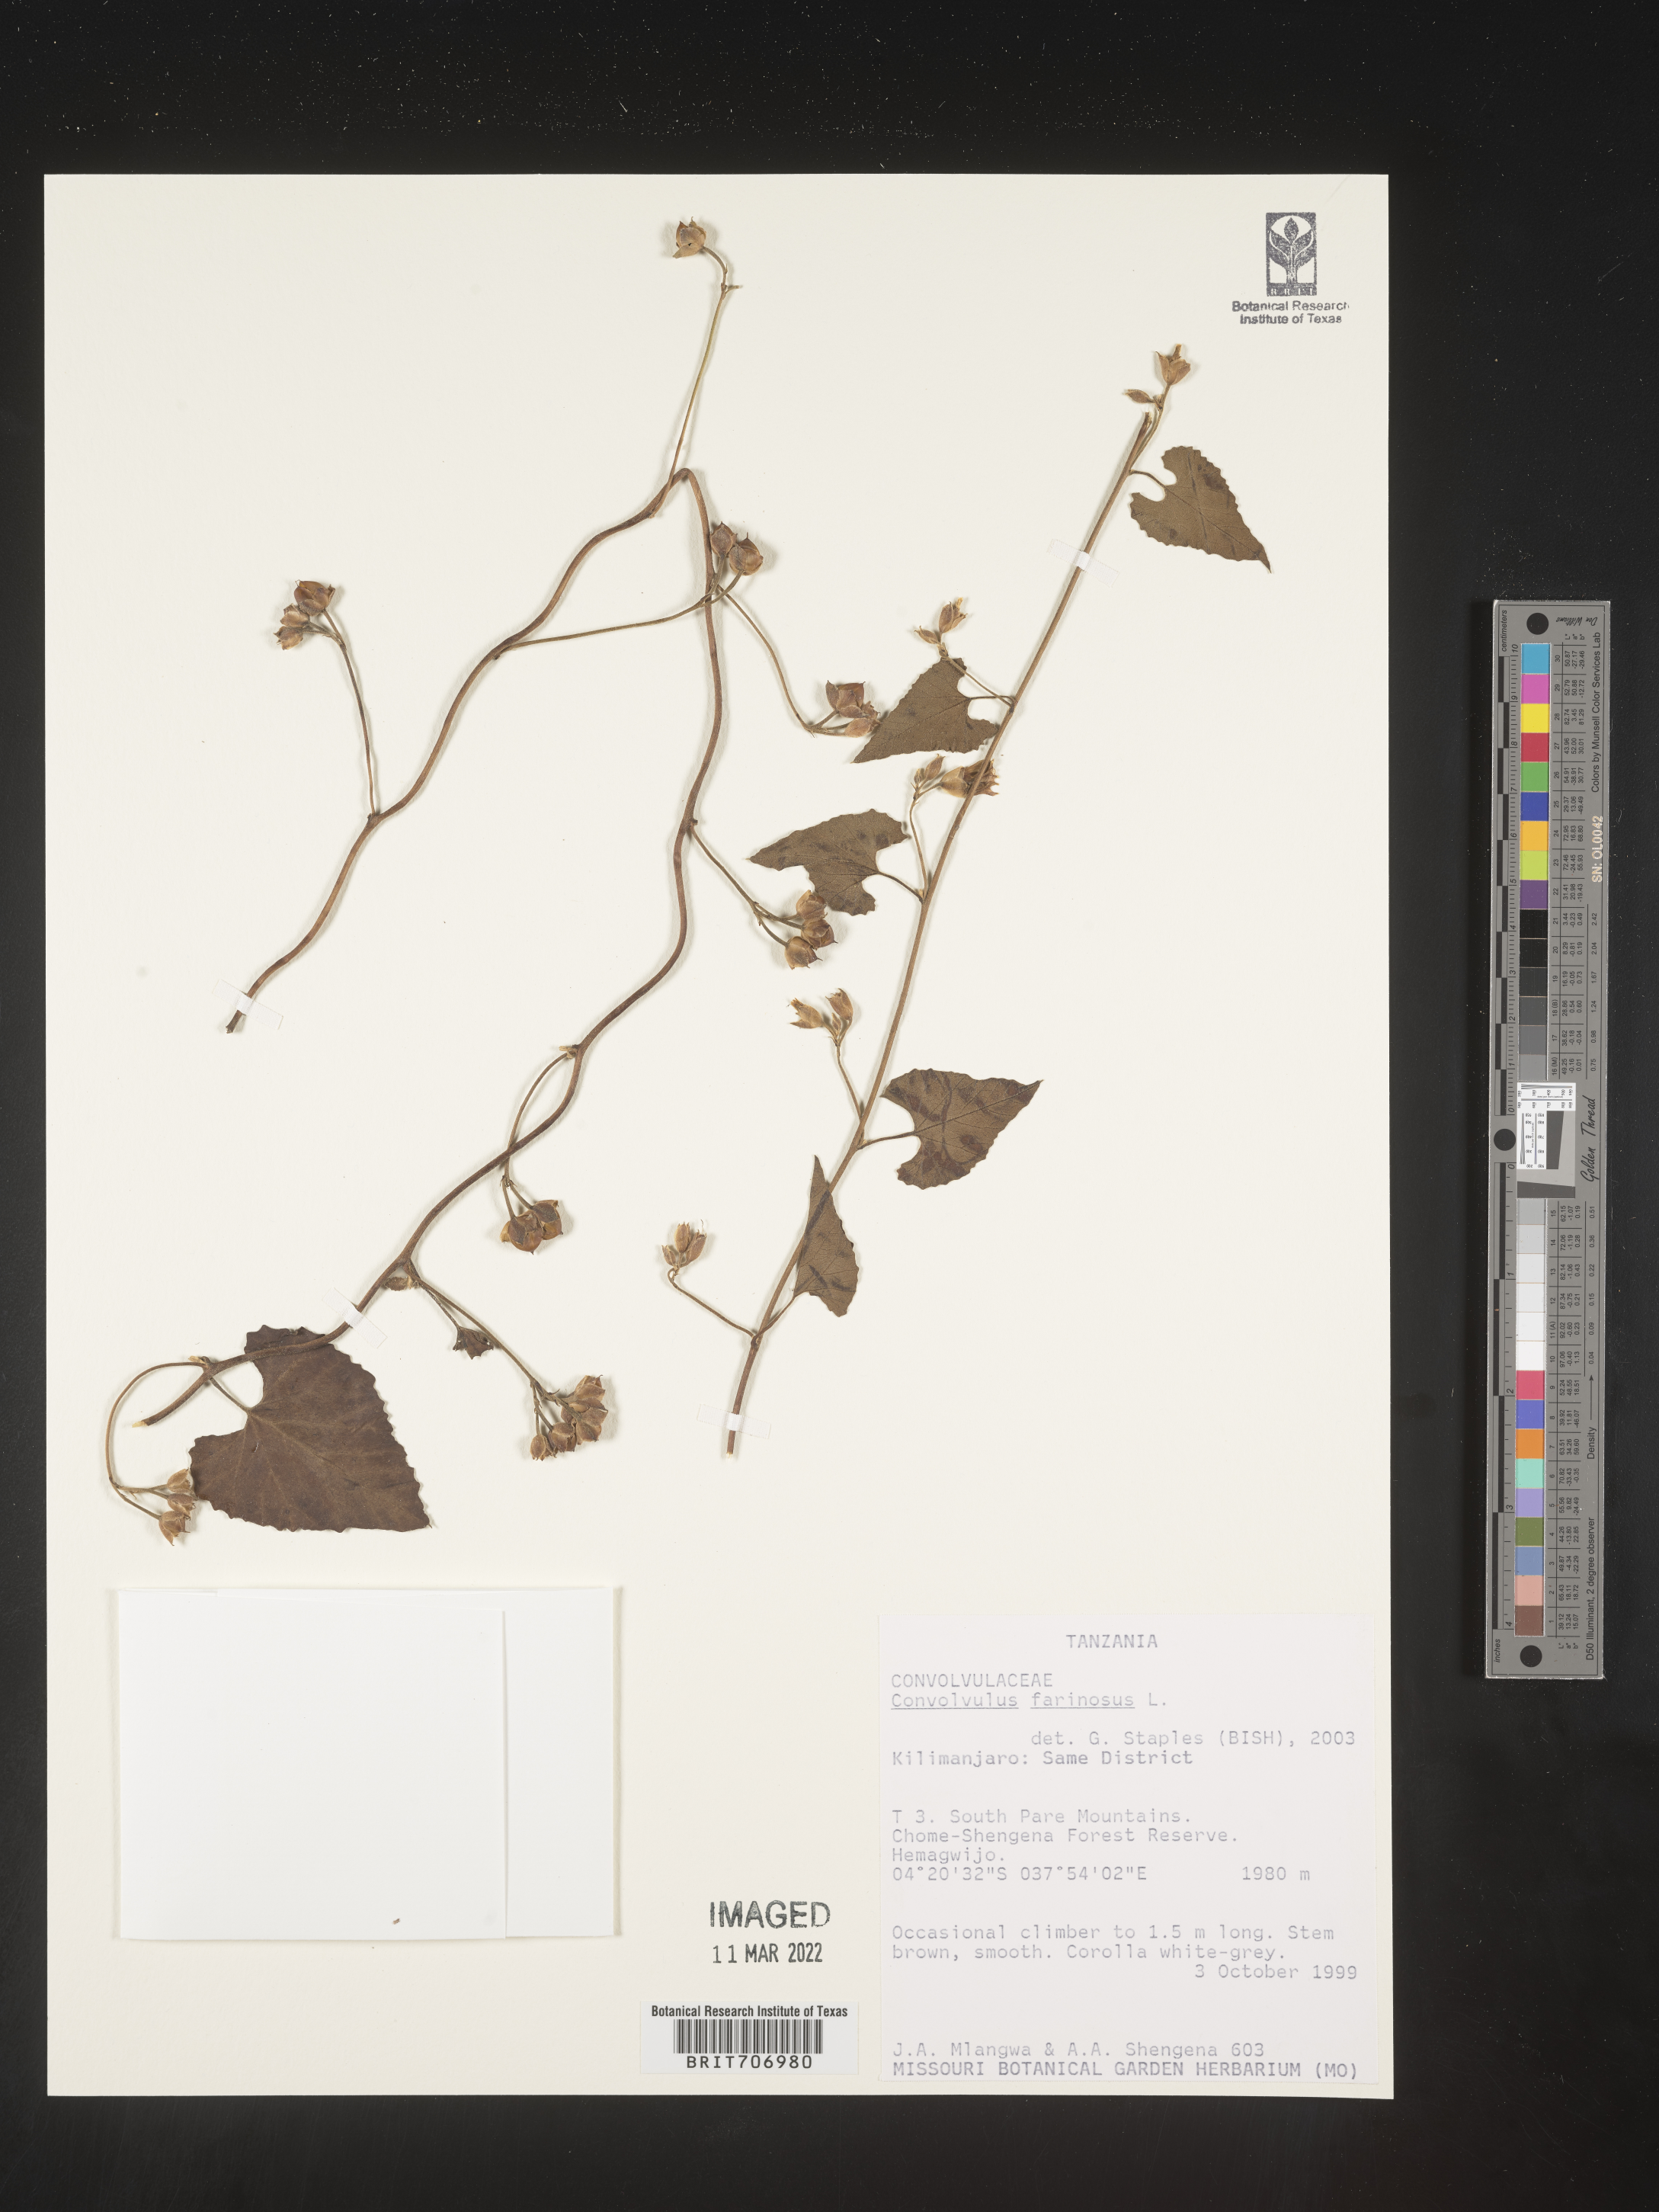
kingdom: Plantae
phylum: Tracheophyta
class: Magnoliopsida
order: Solanales
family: Convolvulaceae
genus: Convolvulus
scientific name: Convolvulus
